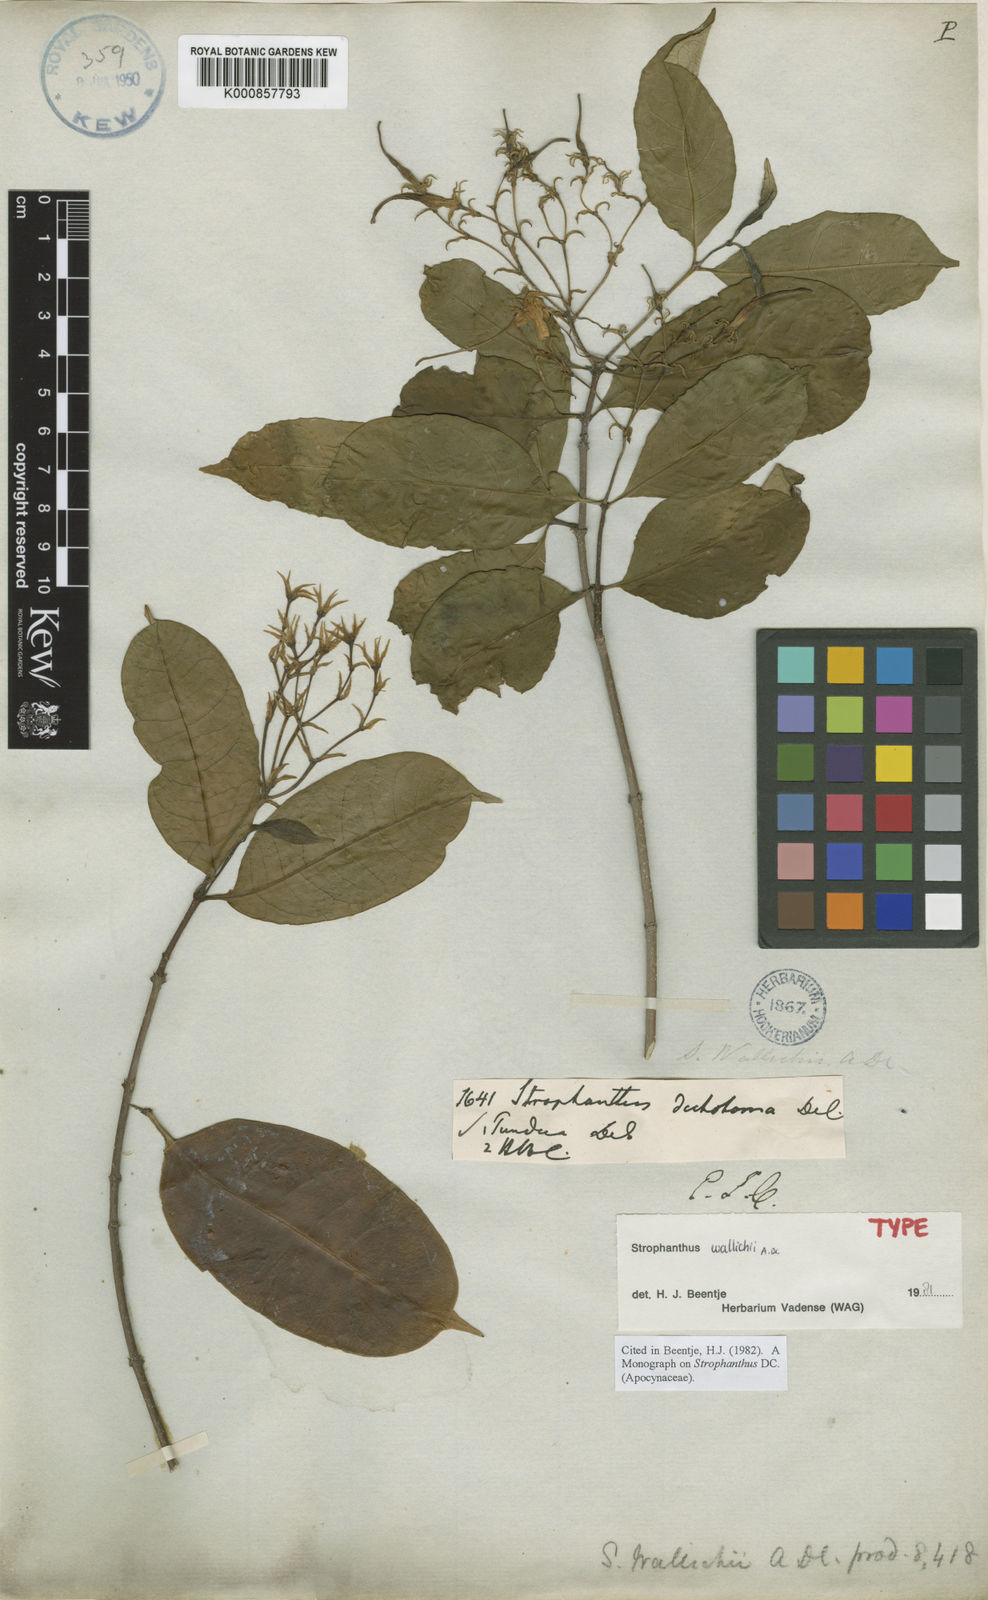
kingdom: Plantae
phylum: Tracheophyta
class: Magnoliopsida
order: Gentianales
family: Apocynaceae
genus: Strophanthus
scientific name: Strophanthus wallichii
